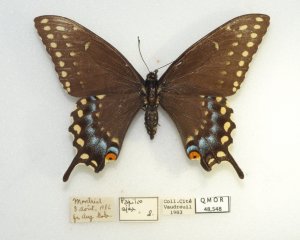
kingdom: Animalia
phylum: Arthropoda
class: Insecta
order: Lepidoptera
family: Papilionidae
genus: Papilio
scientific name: Papilio polyxenes
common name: Black Swallowtail
